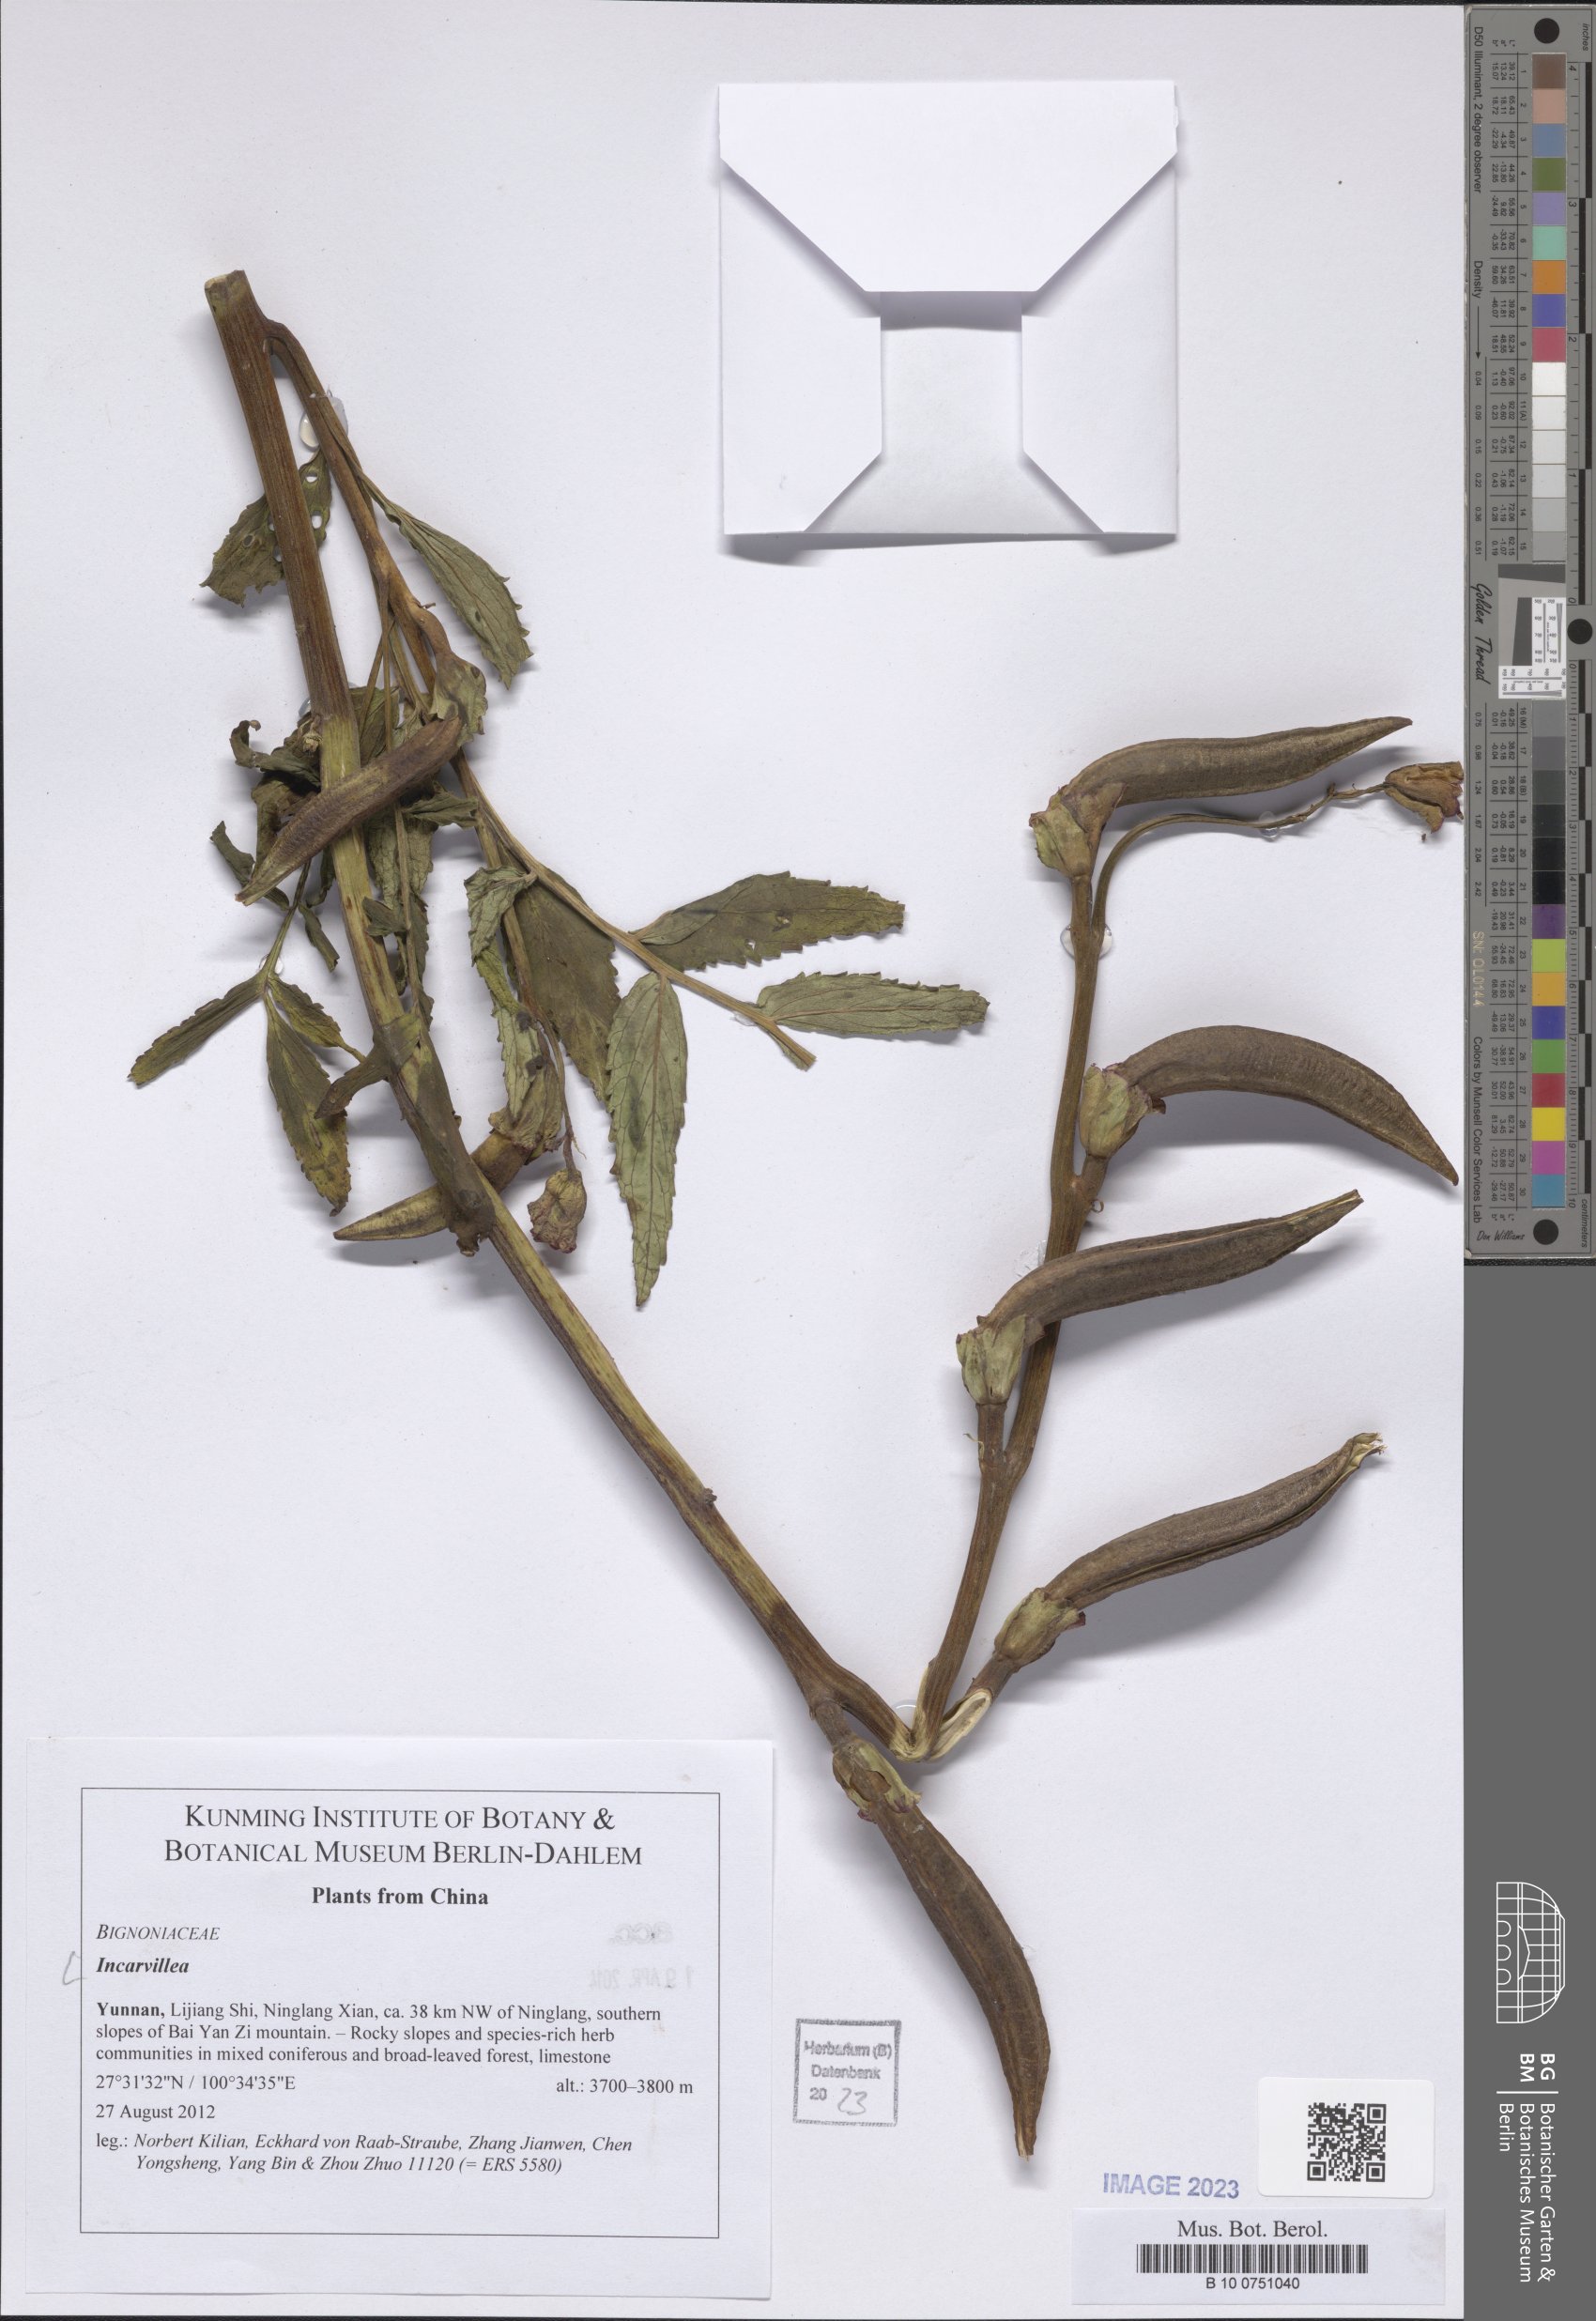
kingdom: Plantae
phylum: Tracheophyta
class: Magnoliopsida
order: Lamiales
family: Bignoniaceae
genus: Incarvillea
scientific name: Incarvillea
